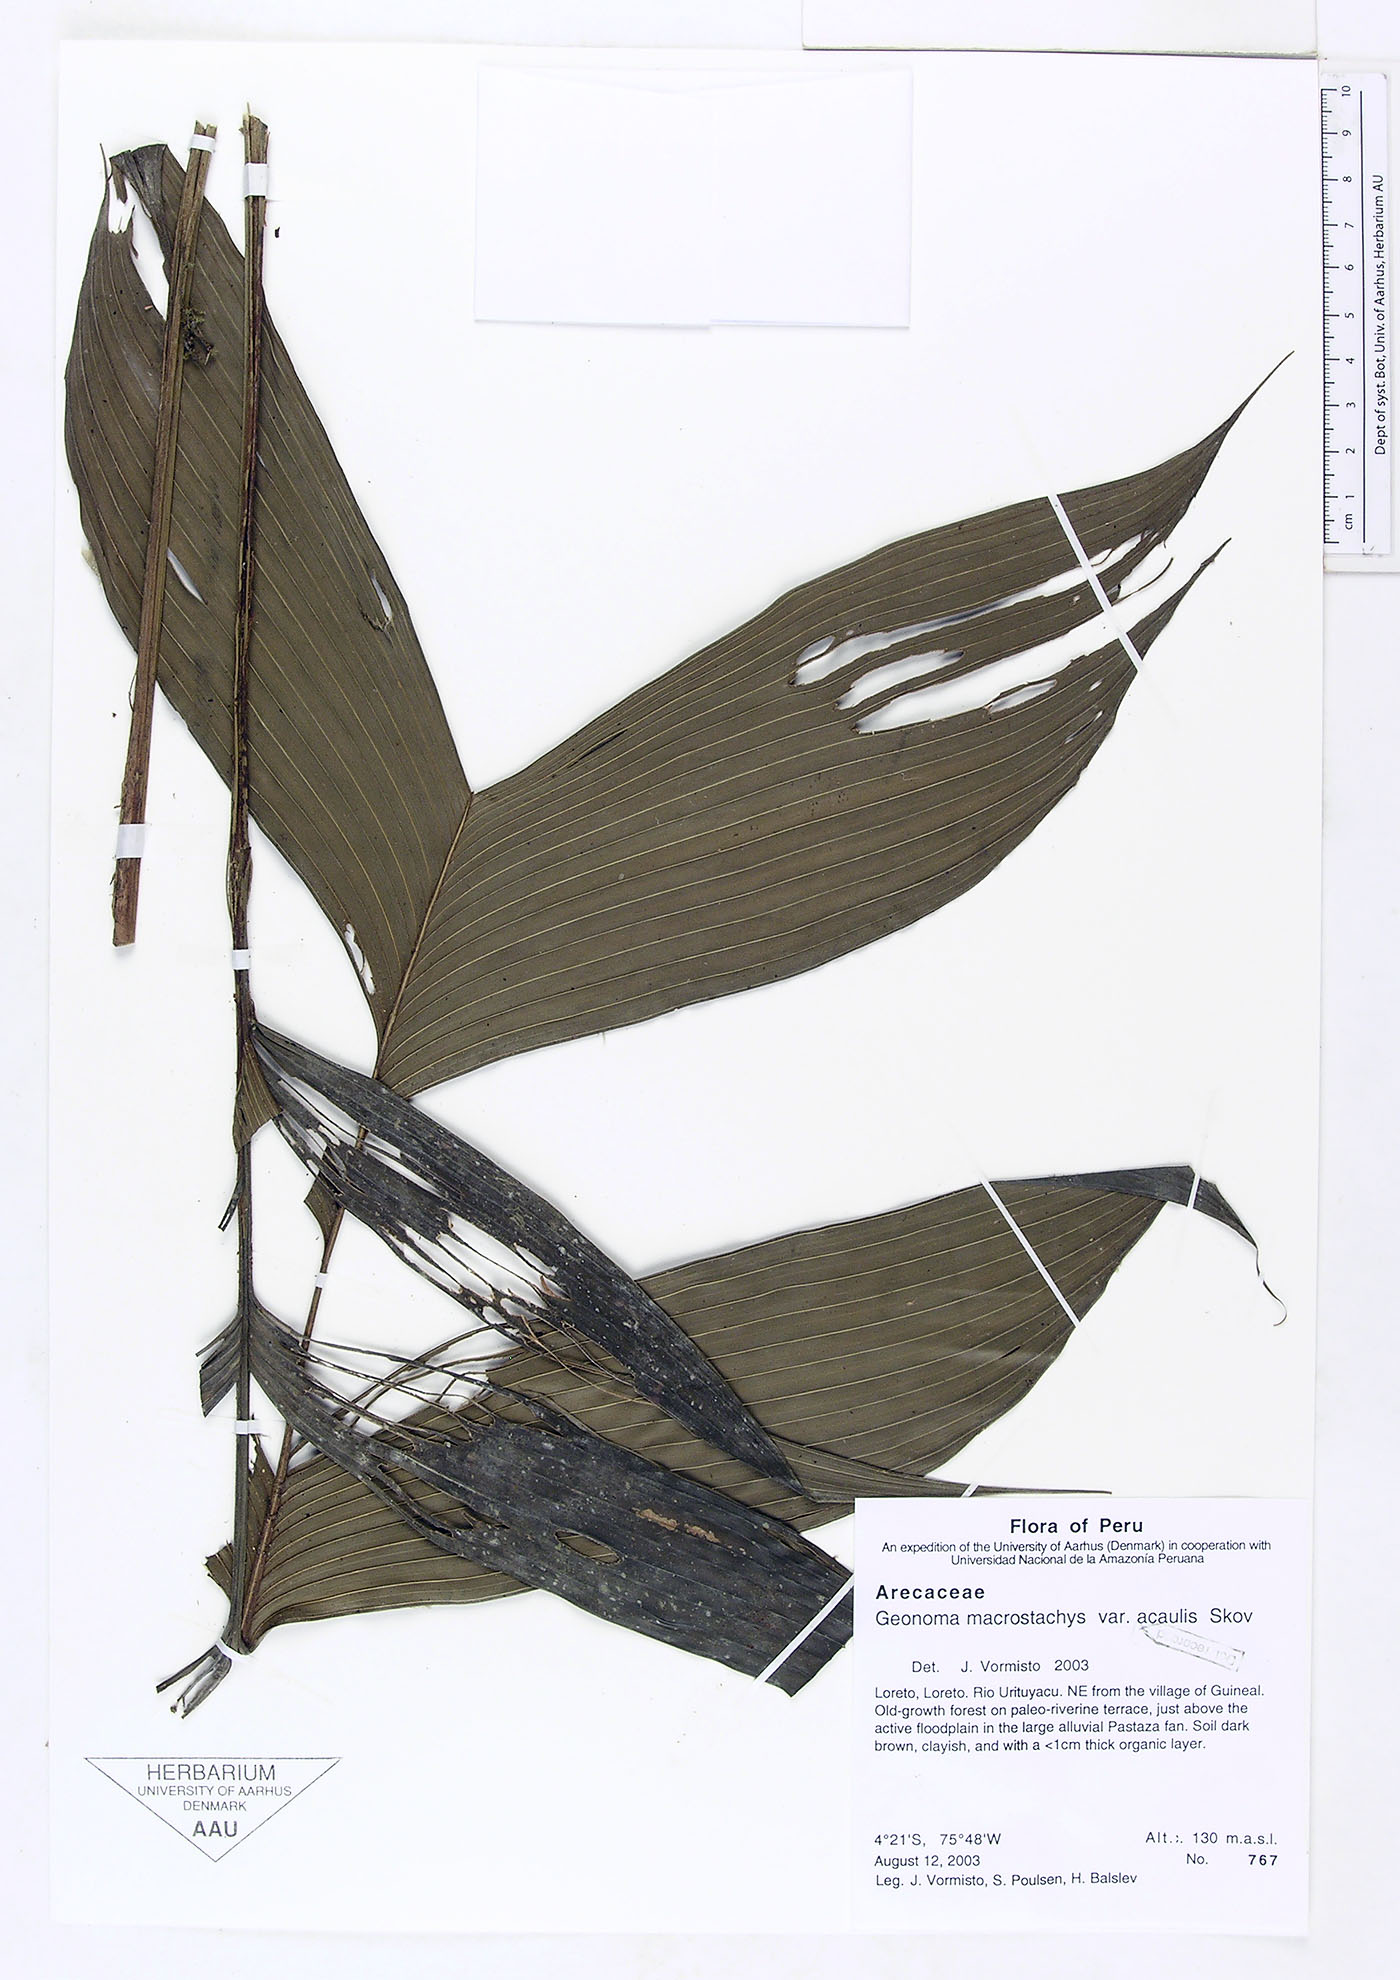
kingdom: Plantae
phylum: Tracheophyta
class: Liliopsida
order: Arecales
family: Arecaceae
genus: Geonoma
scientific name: Geonoma macrostachys
